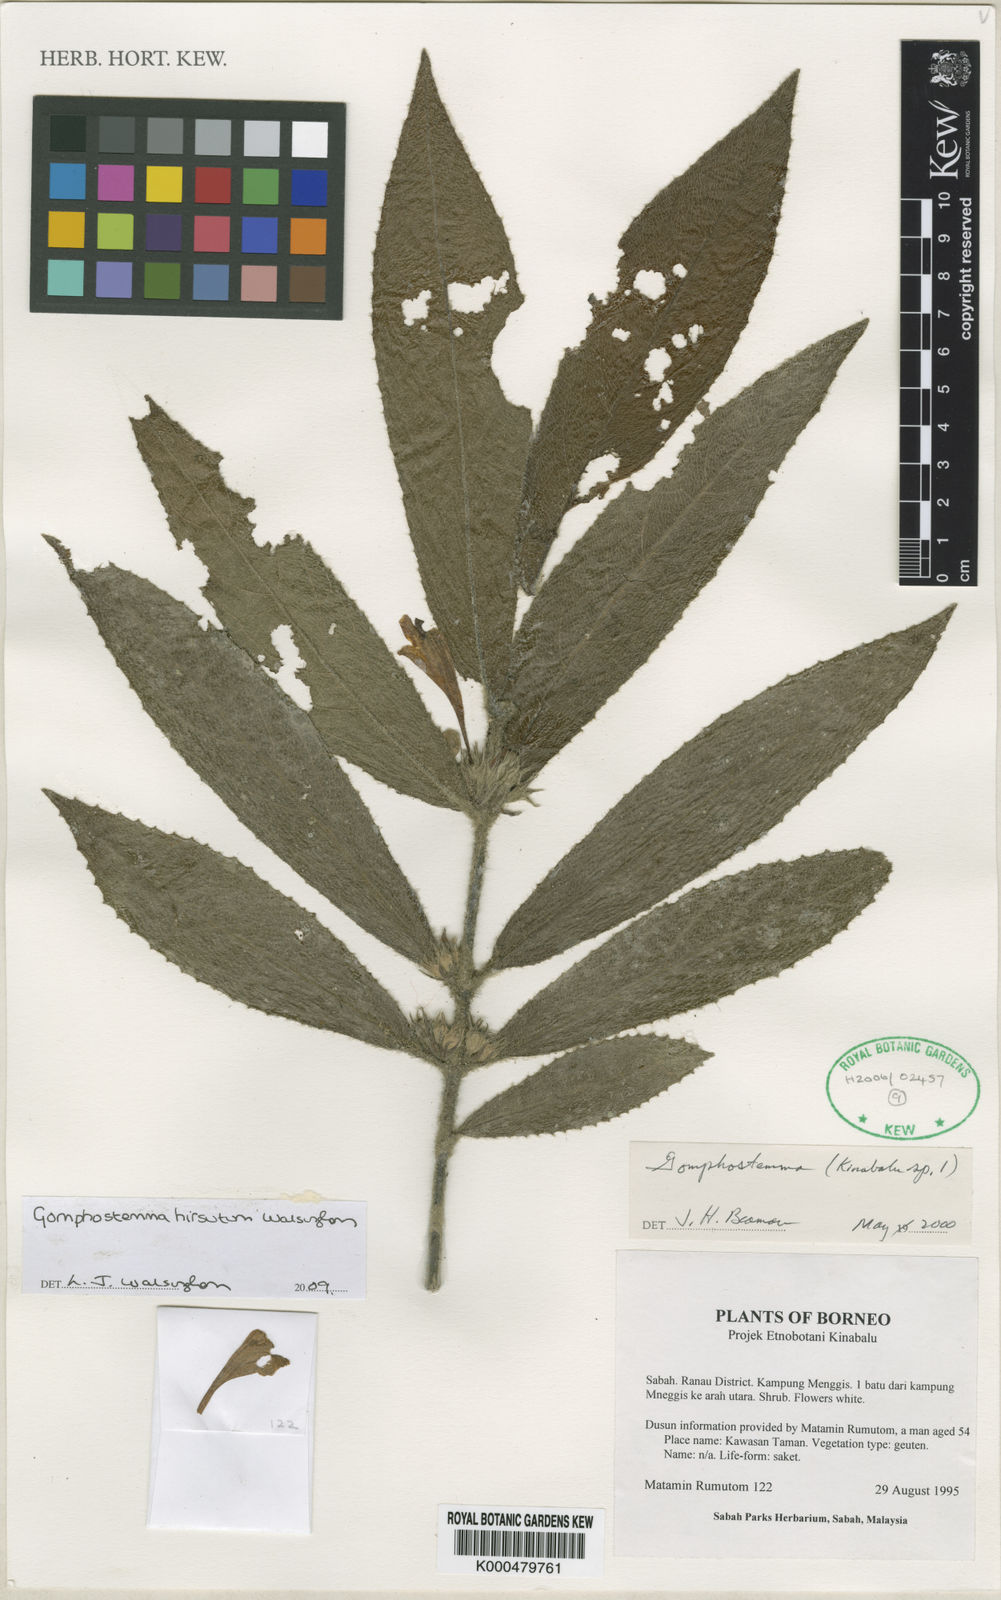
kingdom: Plantae
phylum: Tracheophyta
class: Magnoliopsida
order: Lamiales
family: Lamiaceae
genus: Gomphostemma
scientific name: Gomphostemma hirsutum
